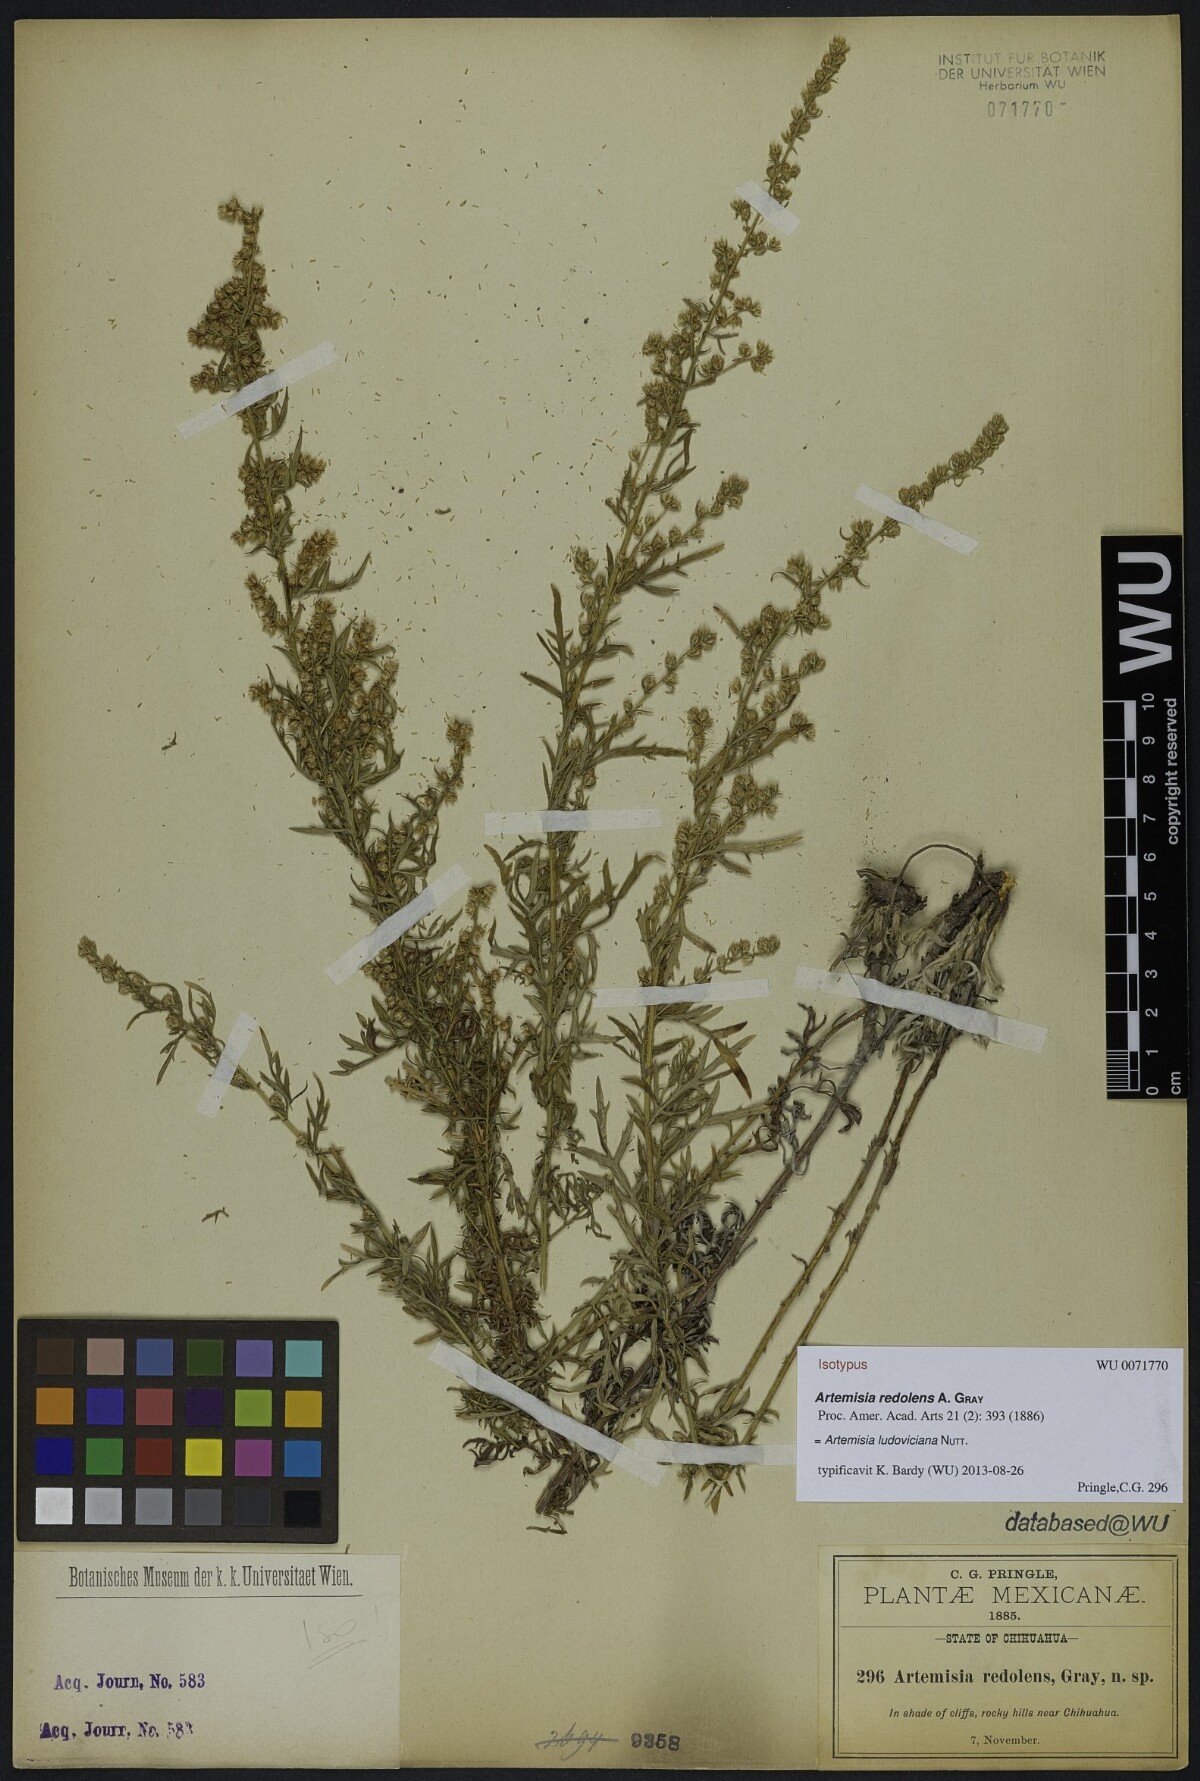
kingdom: Plantae
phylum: Tracheophyta
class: Magnoliopsida
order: Asterales
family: Asteraceae
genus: Artemisia
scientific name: Artemisia ludoviciana
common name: Western mugwort
